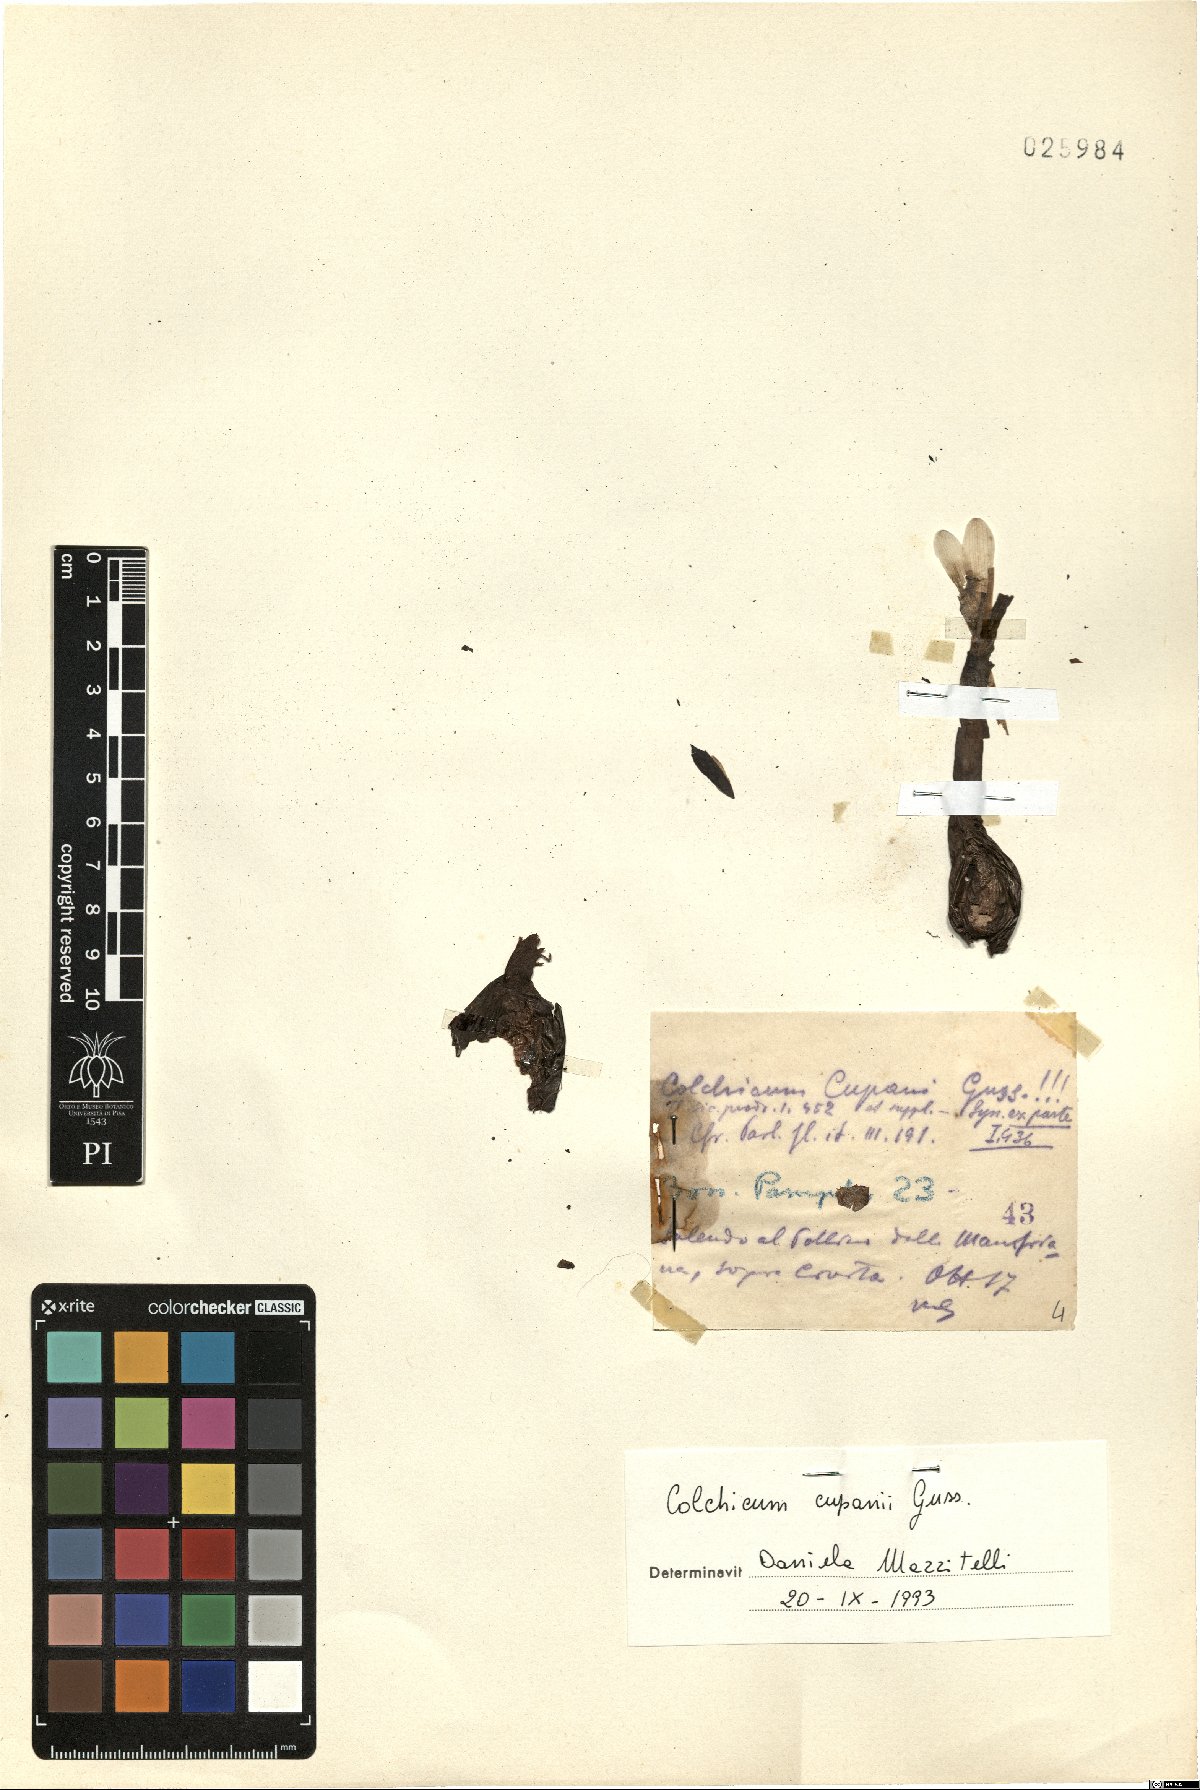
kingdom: Plantae
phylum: Tracheophyta
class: Liliopsida
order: Liliales
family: Colchicaceae
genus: Colchicum
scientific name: Colchicum cupanii
